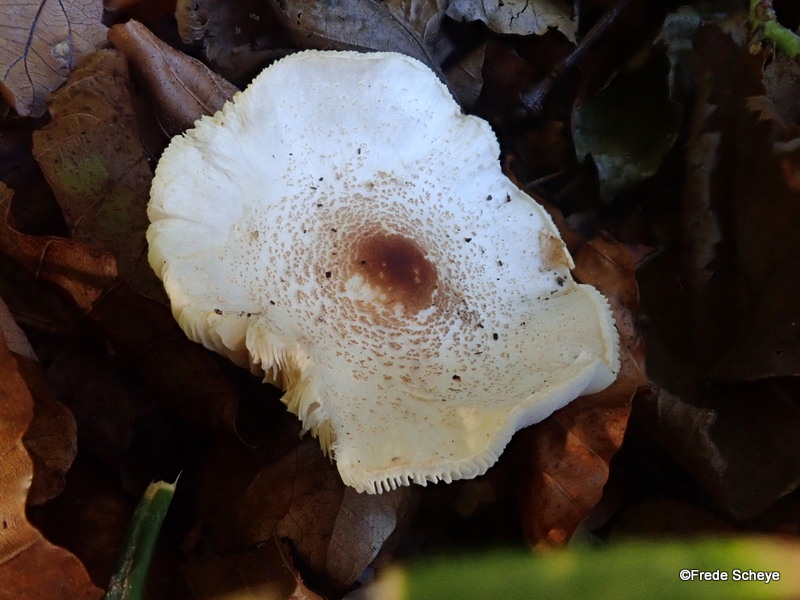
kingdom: Fungi
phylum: Basidiomycota
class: Agaricomycetes
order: Agaricales
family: Agaricaceae
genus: Lepiota
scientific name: Lepiota cristata
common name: stinkende parasolhat
